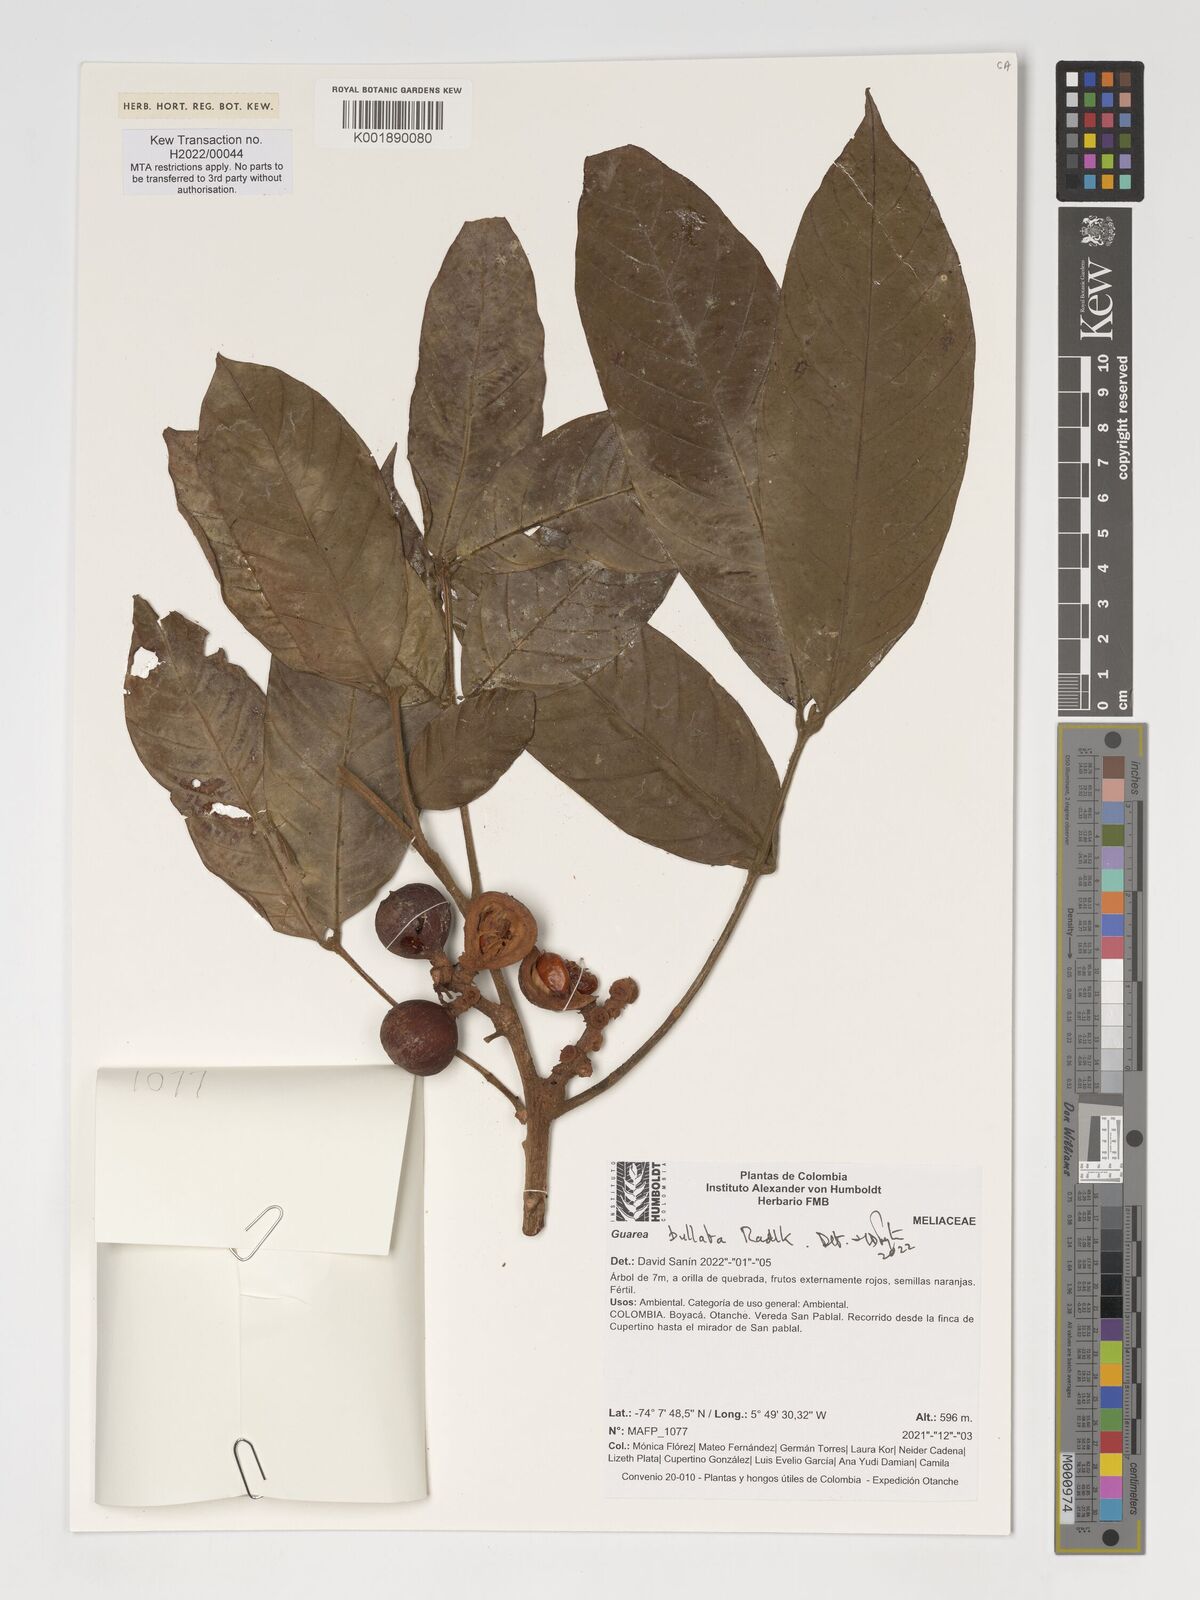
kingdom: Plantae
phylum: Tracheophyta
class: Magnoliopsida
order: Sapindales
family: Meliaceae
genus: Guarea
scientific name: Guarea glabra
